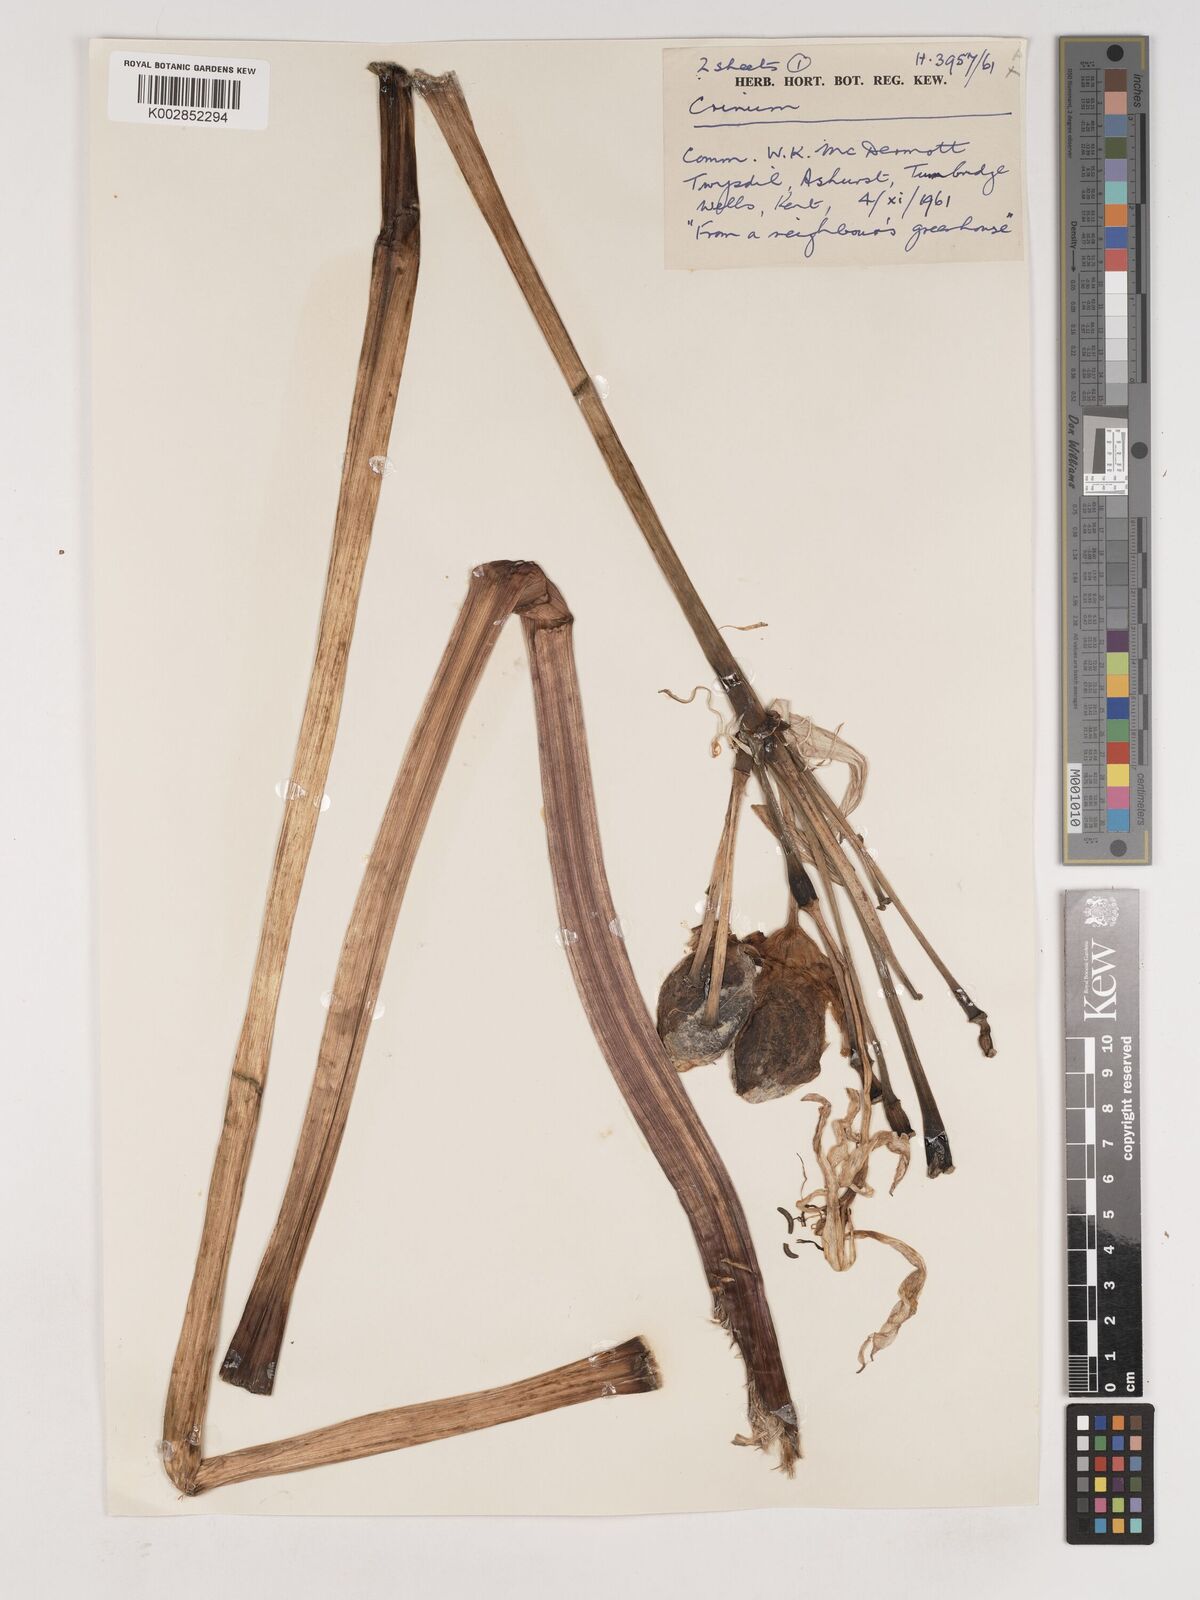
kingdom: Plantae
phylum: Tracheophyta
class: Liliopsida
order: Asparagales
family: Amaryllidaceae
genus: Crinum
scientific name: Crinum
